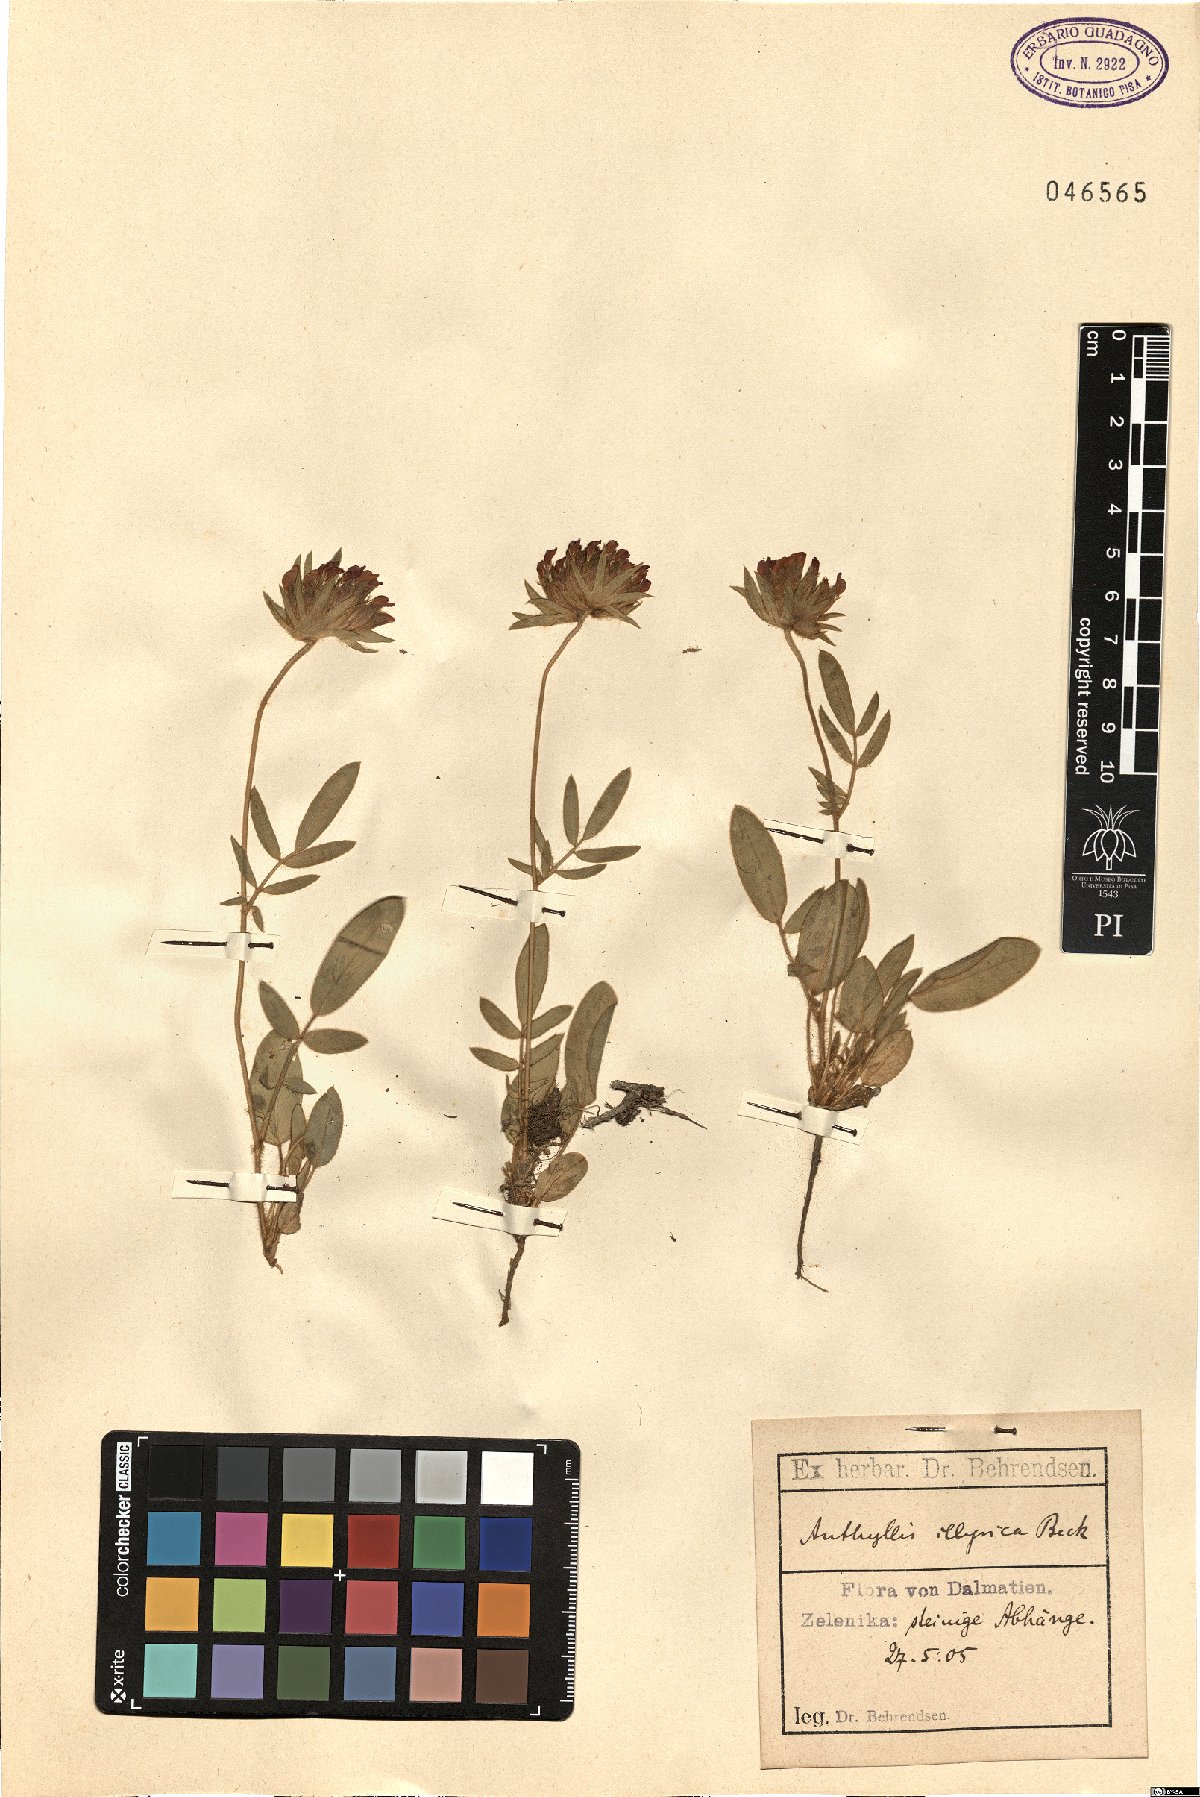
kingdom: Plantae
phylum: Tracheophyta
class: Magnoliopsida
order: Fabales
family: Fabaceae
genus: Anthyllis
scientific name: Anthyllis vulneraria
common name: Kidney vetch
